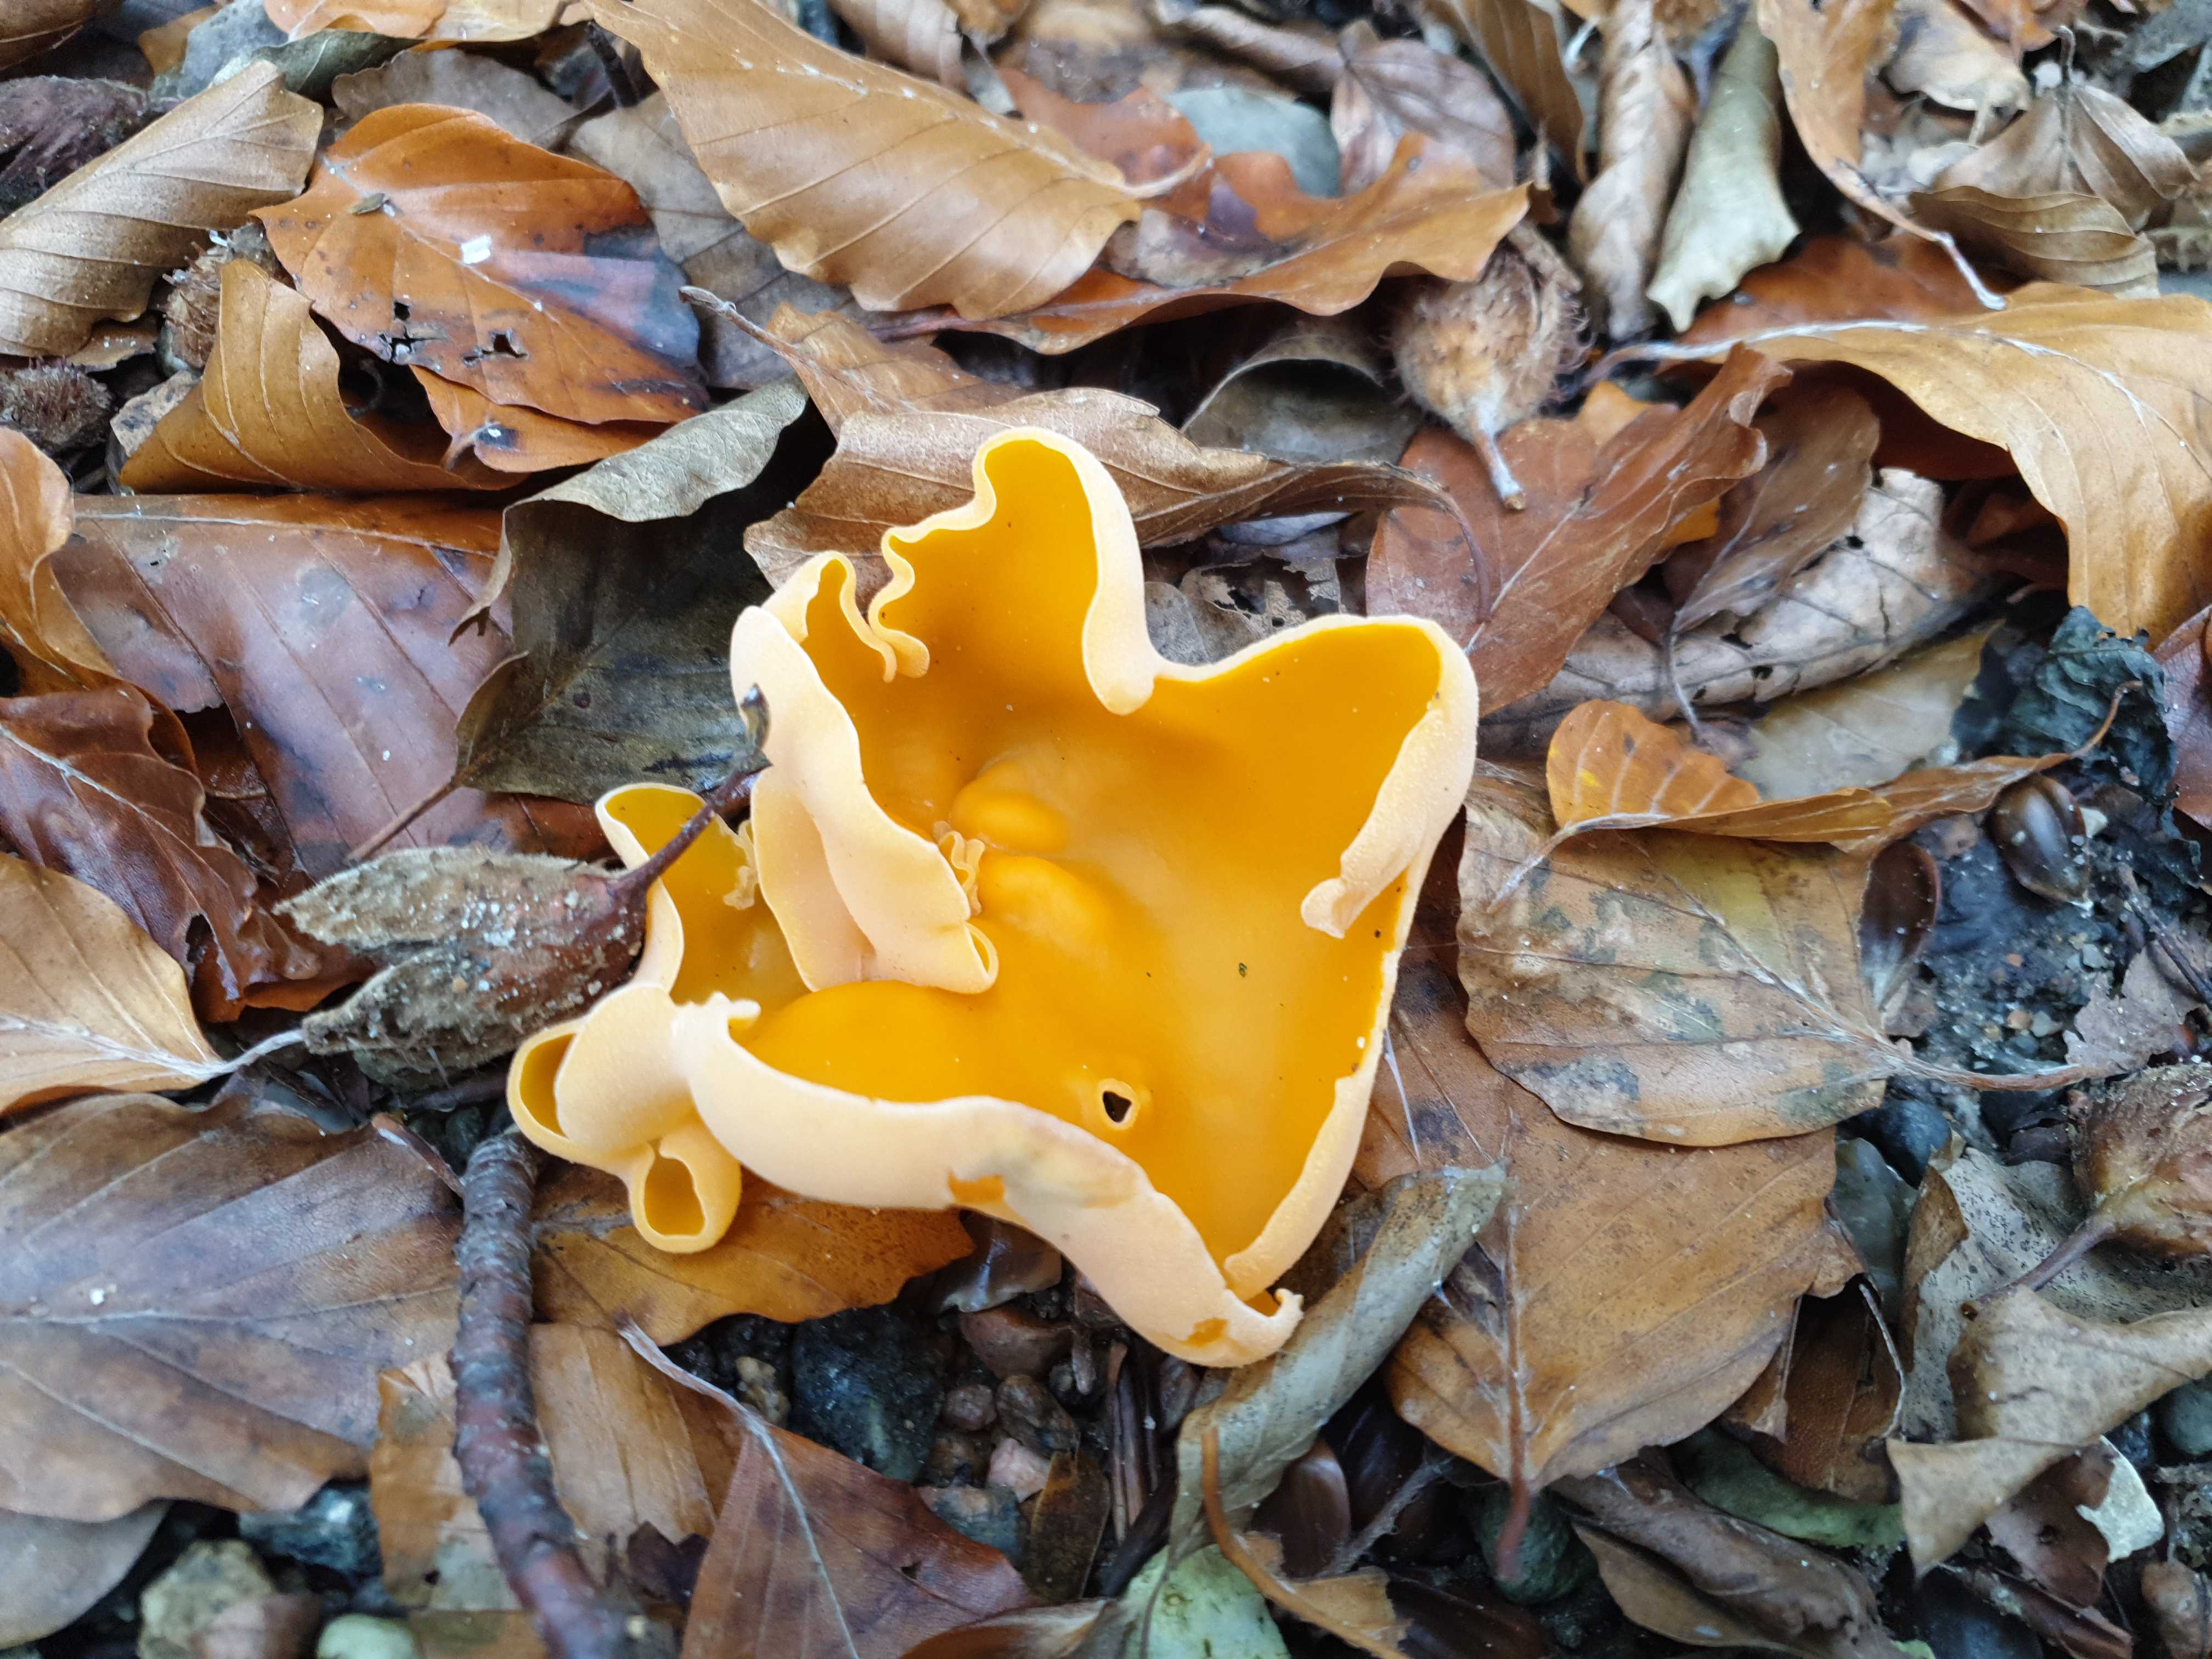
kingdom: Fungi
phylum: Ascomycota
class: Pezizomycetes
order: Pezizales
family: Pyronemataceae
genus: Aleuria
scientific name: Aleuria aurantia
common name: almindelig orangebæger
